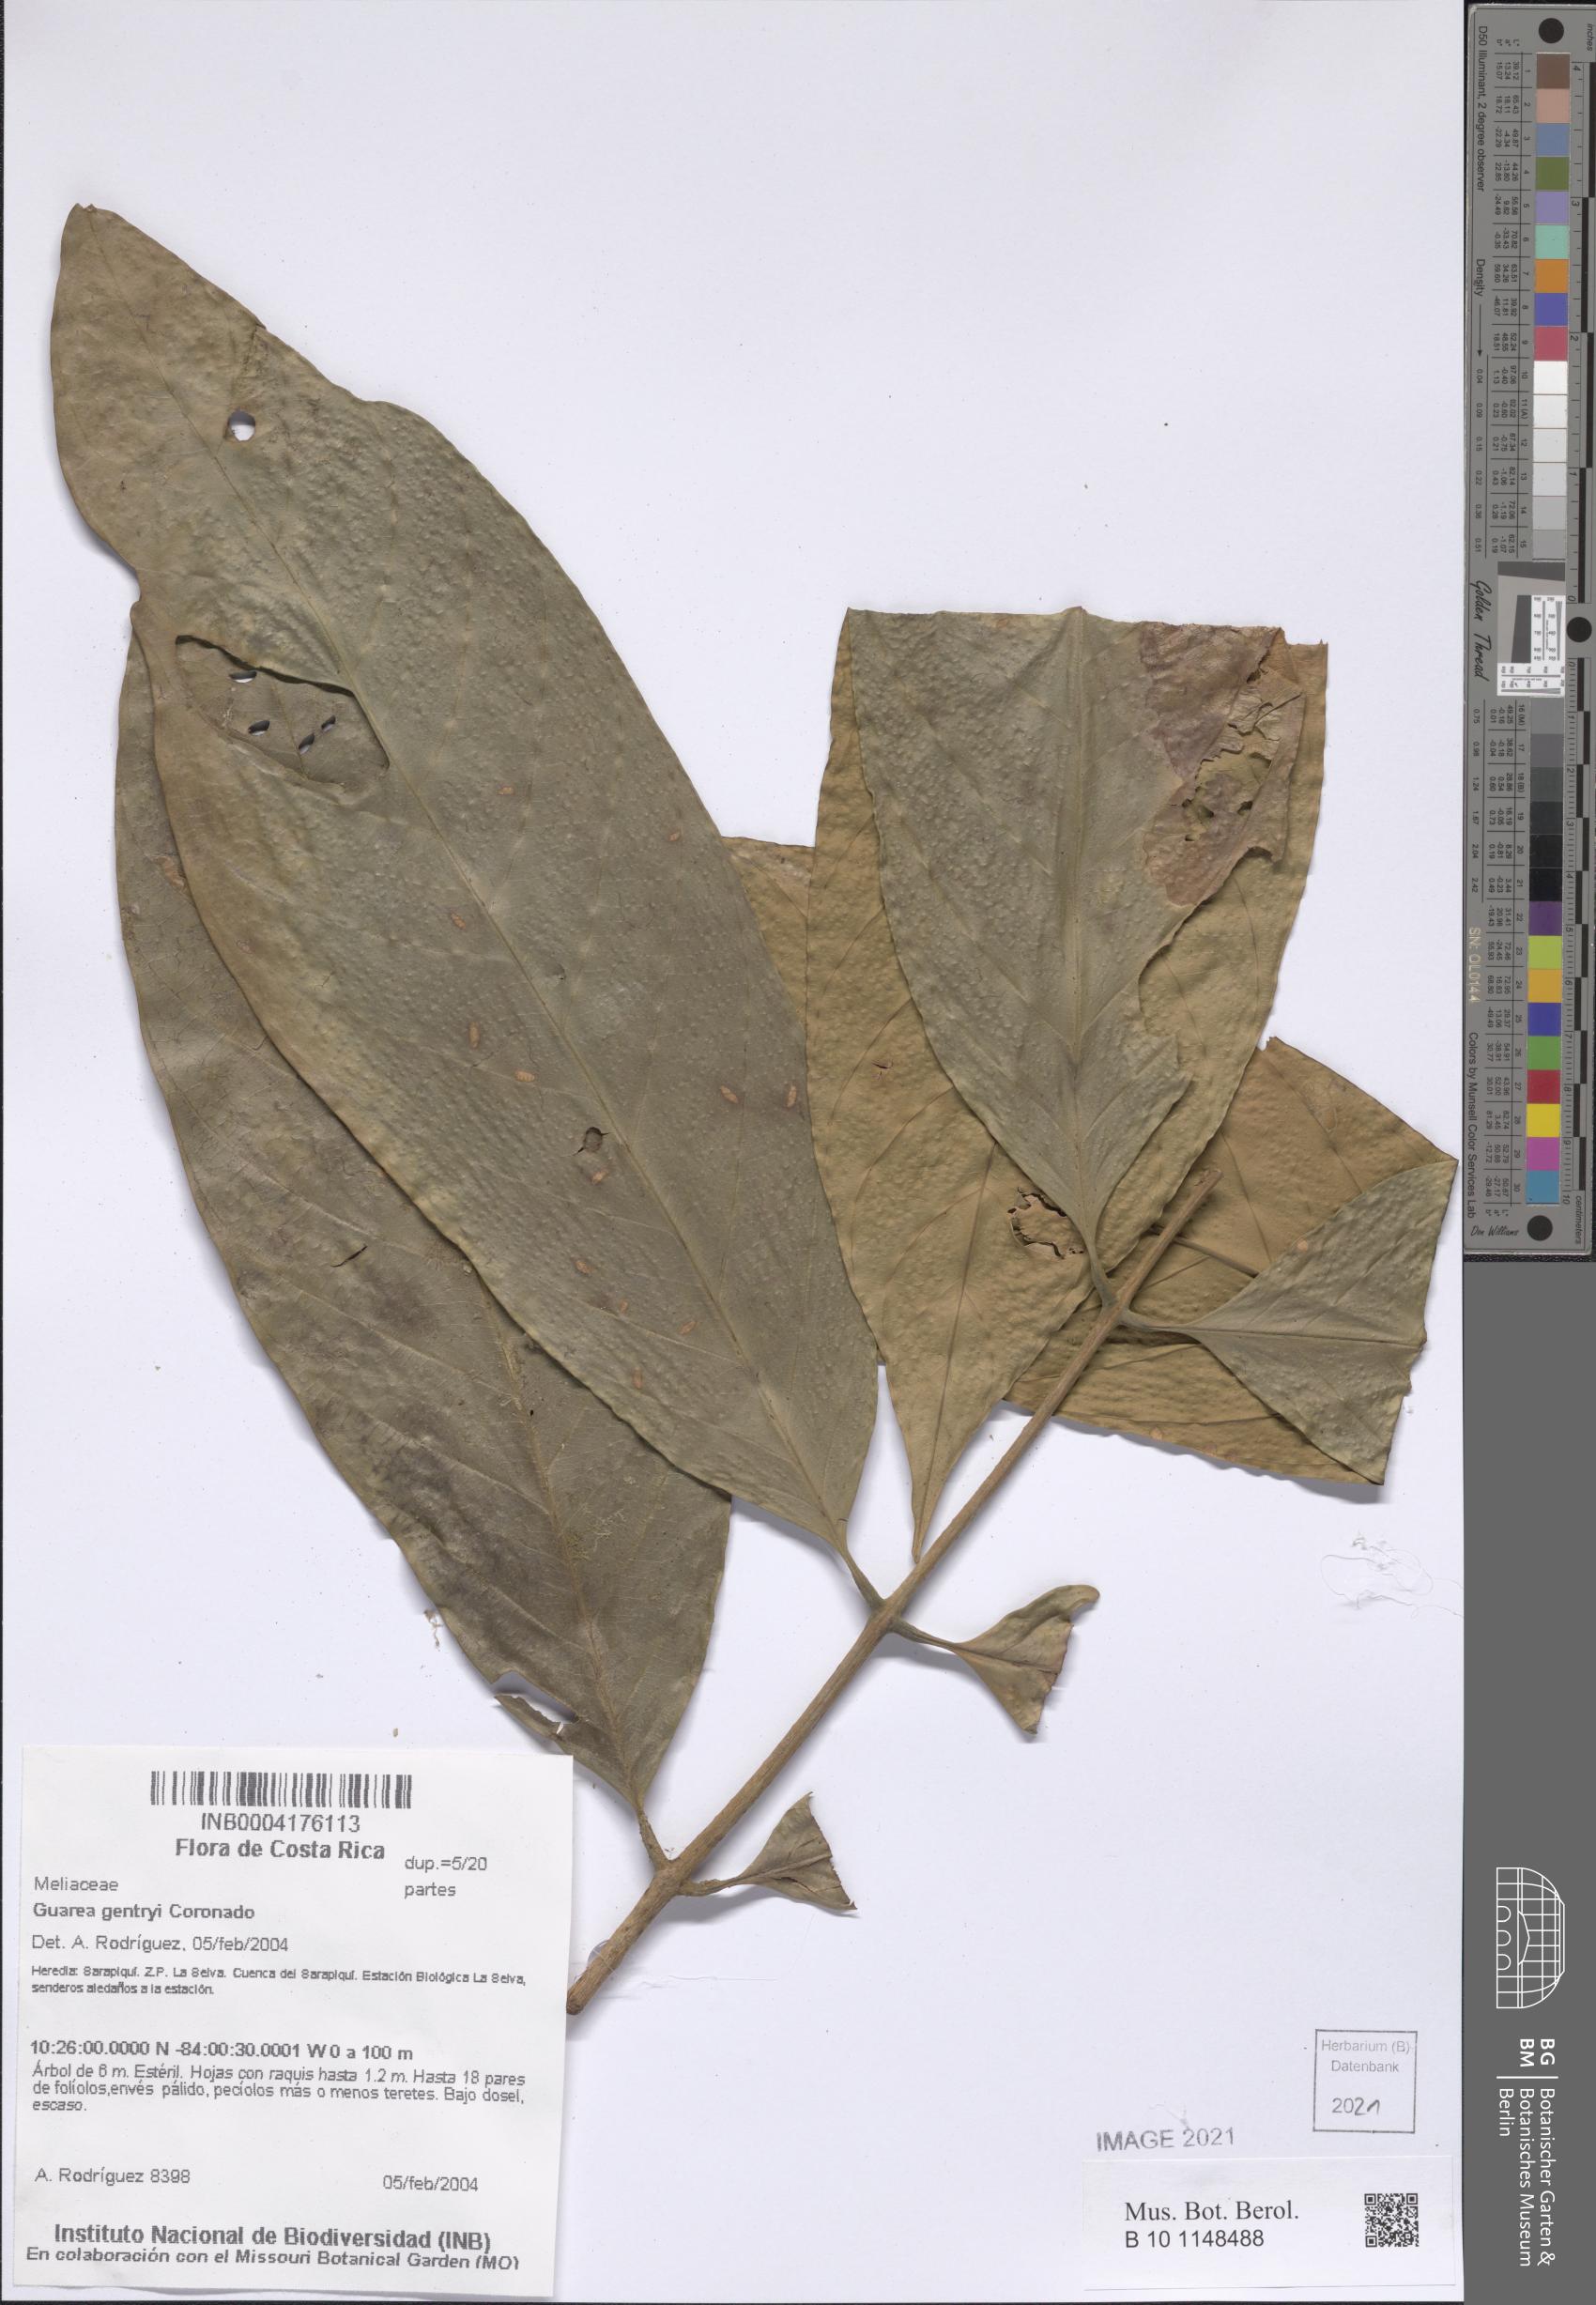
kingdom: Plantae
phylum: Tracheophyta
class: Magnoliopsida
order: Sapindales
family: Meliaceae
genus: Guarea
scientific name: Guarea gentryi
